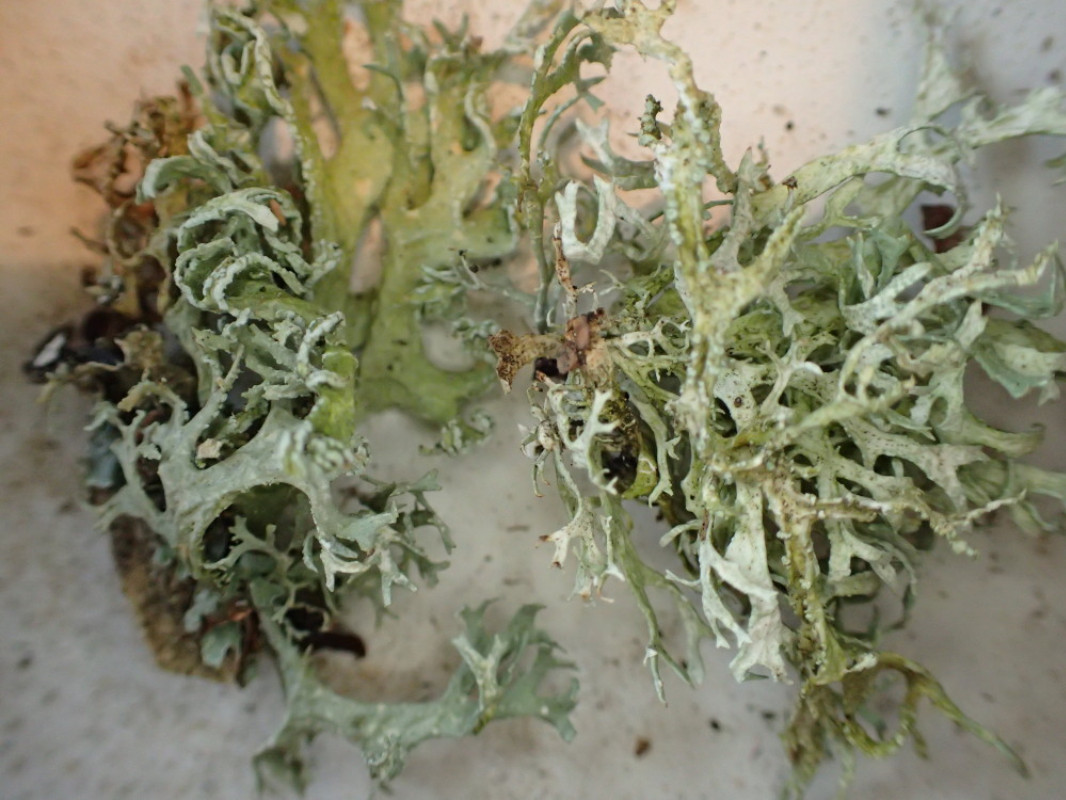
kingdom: Fungi
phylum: Ascomycota
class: Lecanoromycetes
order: Lecanorales
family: Parmeliaceae
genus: Evernia
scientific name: Evernia prunastri
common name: almindelig slåenlav
